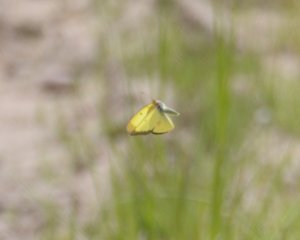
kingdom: Animalia
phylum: Arthropoda
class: Insecta
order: Lepidoptera
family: Pieridae
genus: Colias
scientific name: Colias philodice
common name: Clouded Sulphur
